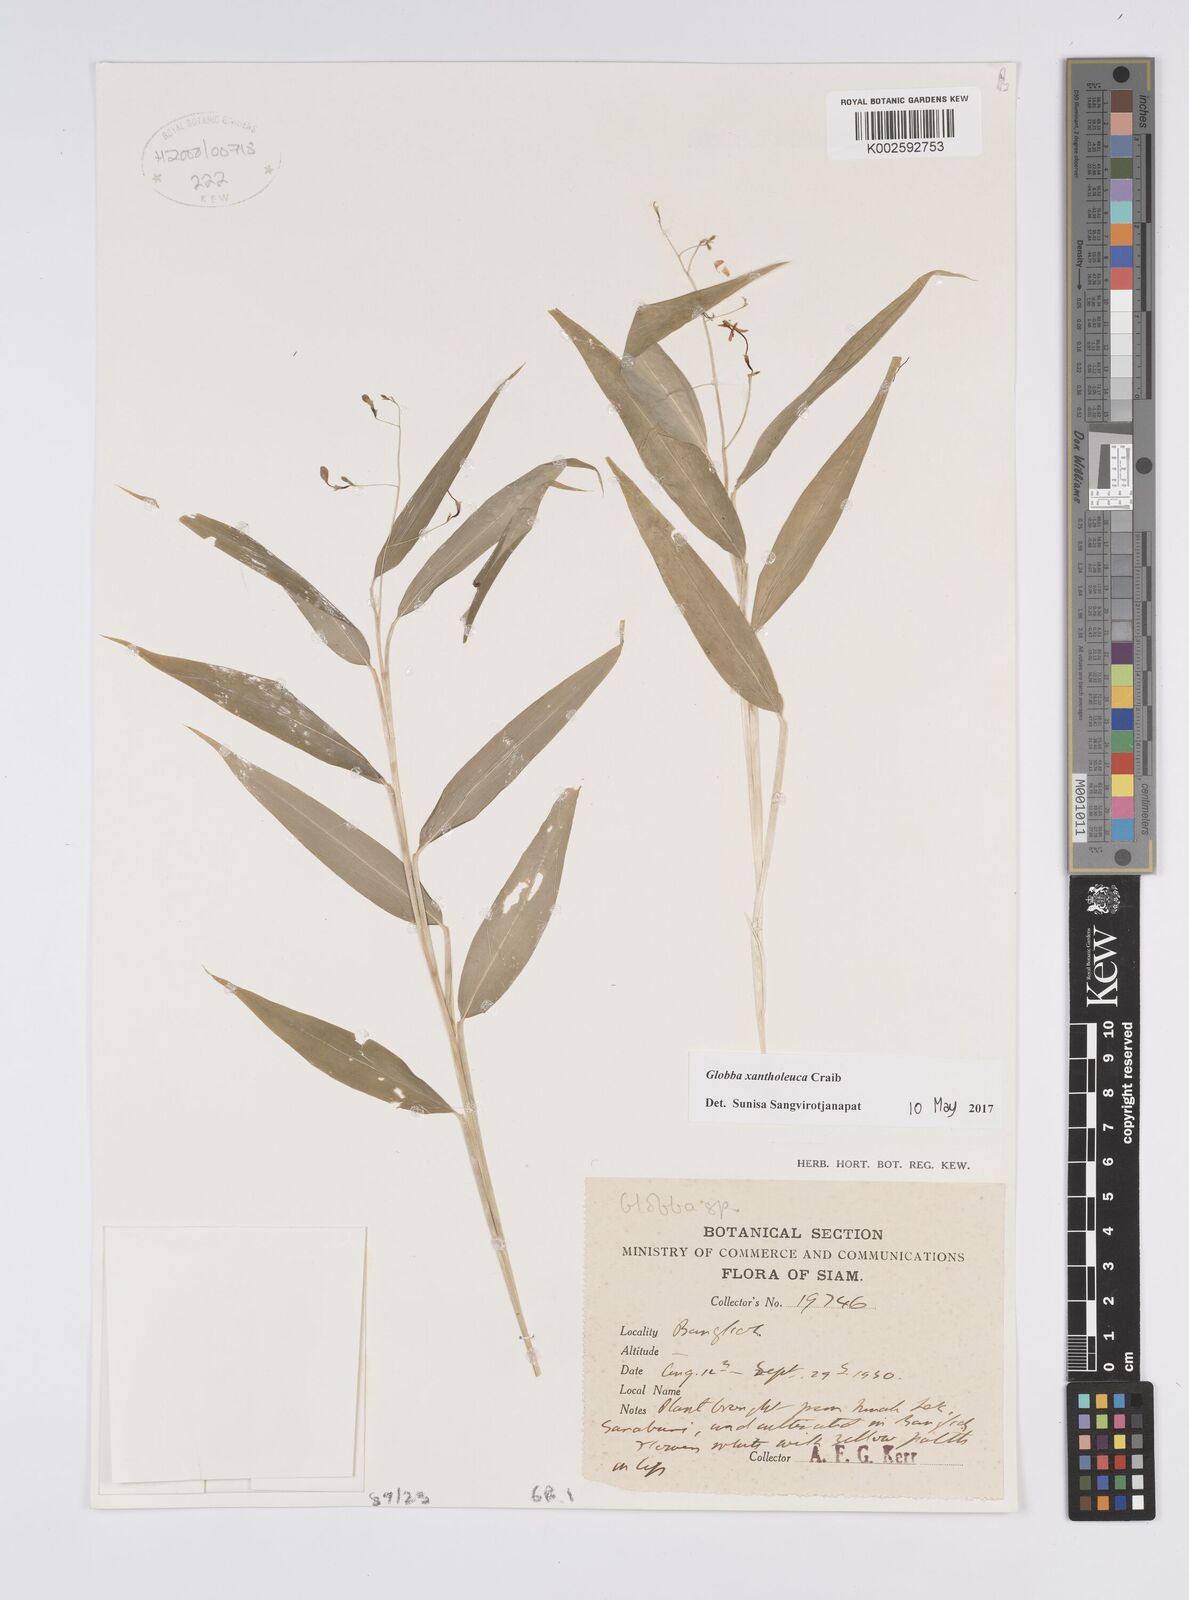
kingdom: Plantae
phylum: Tracheophyta
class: Liliopsida
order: Zingiberales
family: Zingiberaceae
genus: Globba
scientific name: Globba xantholeuca
